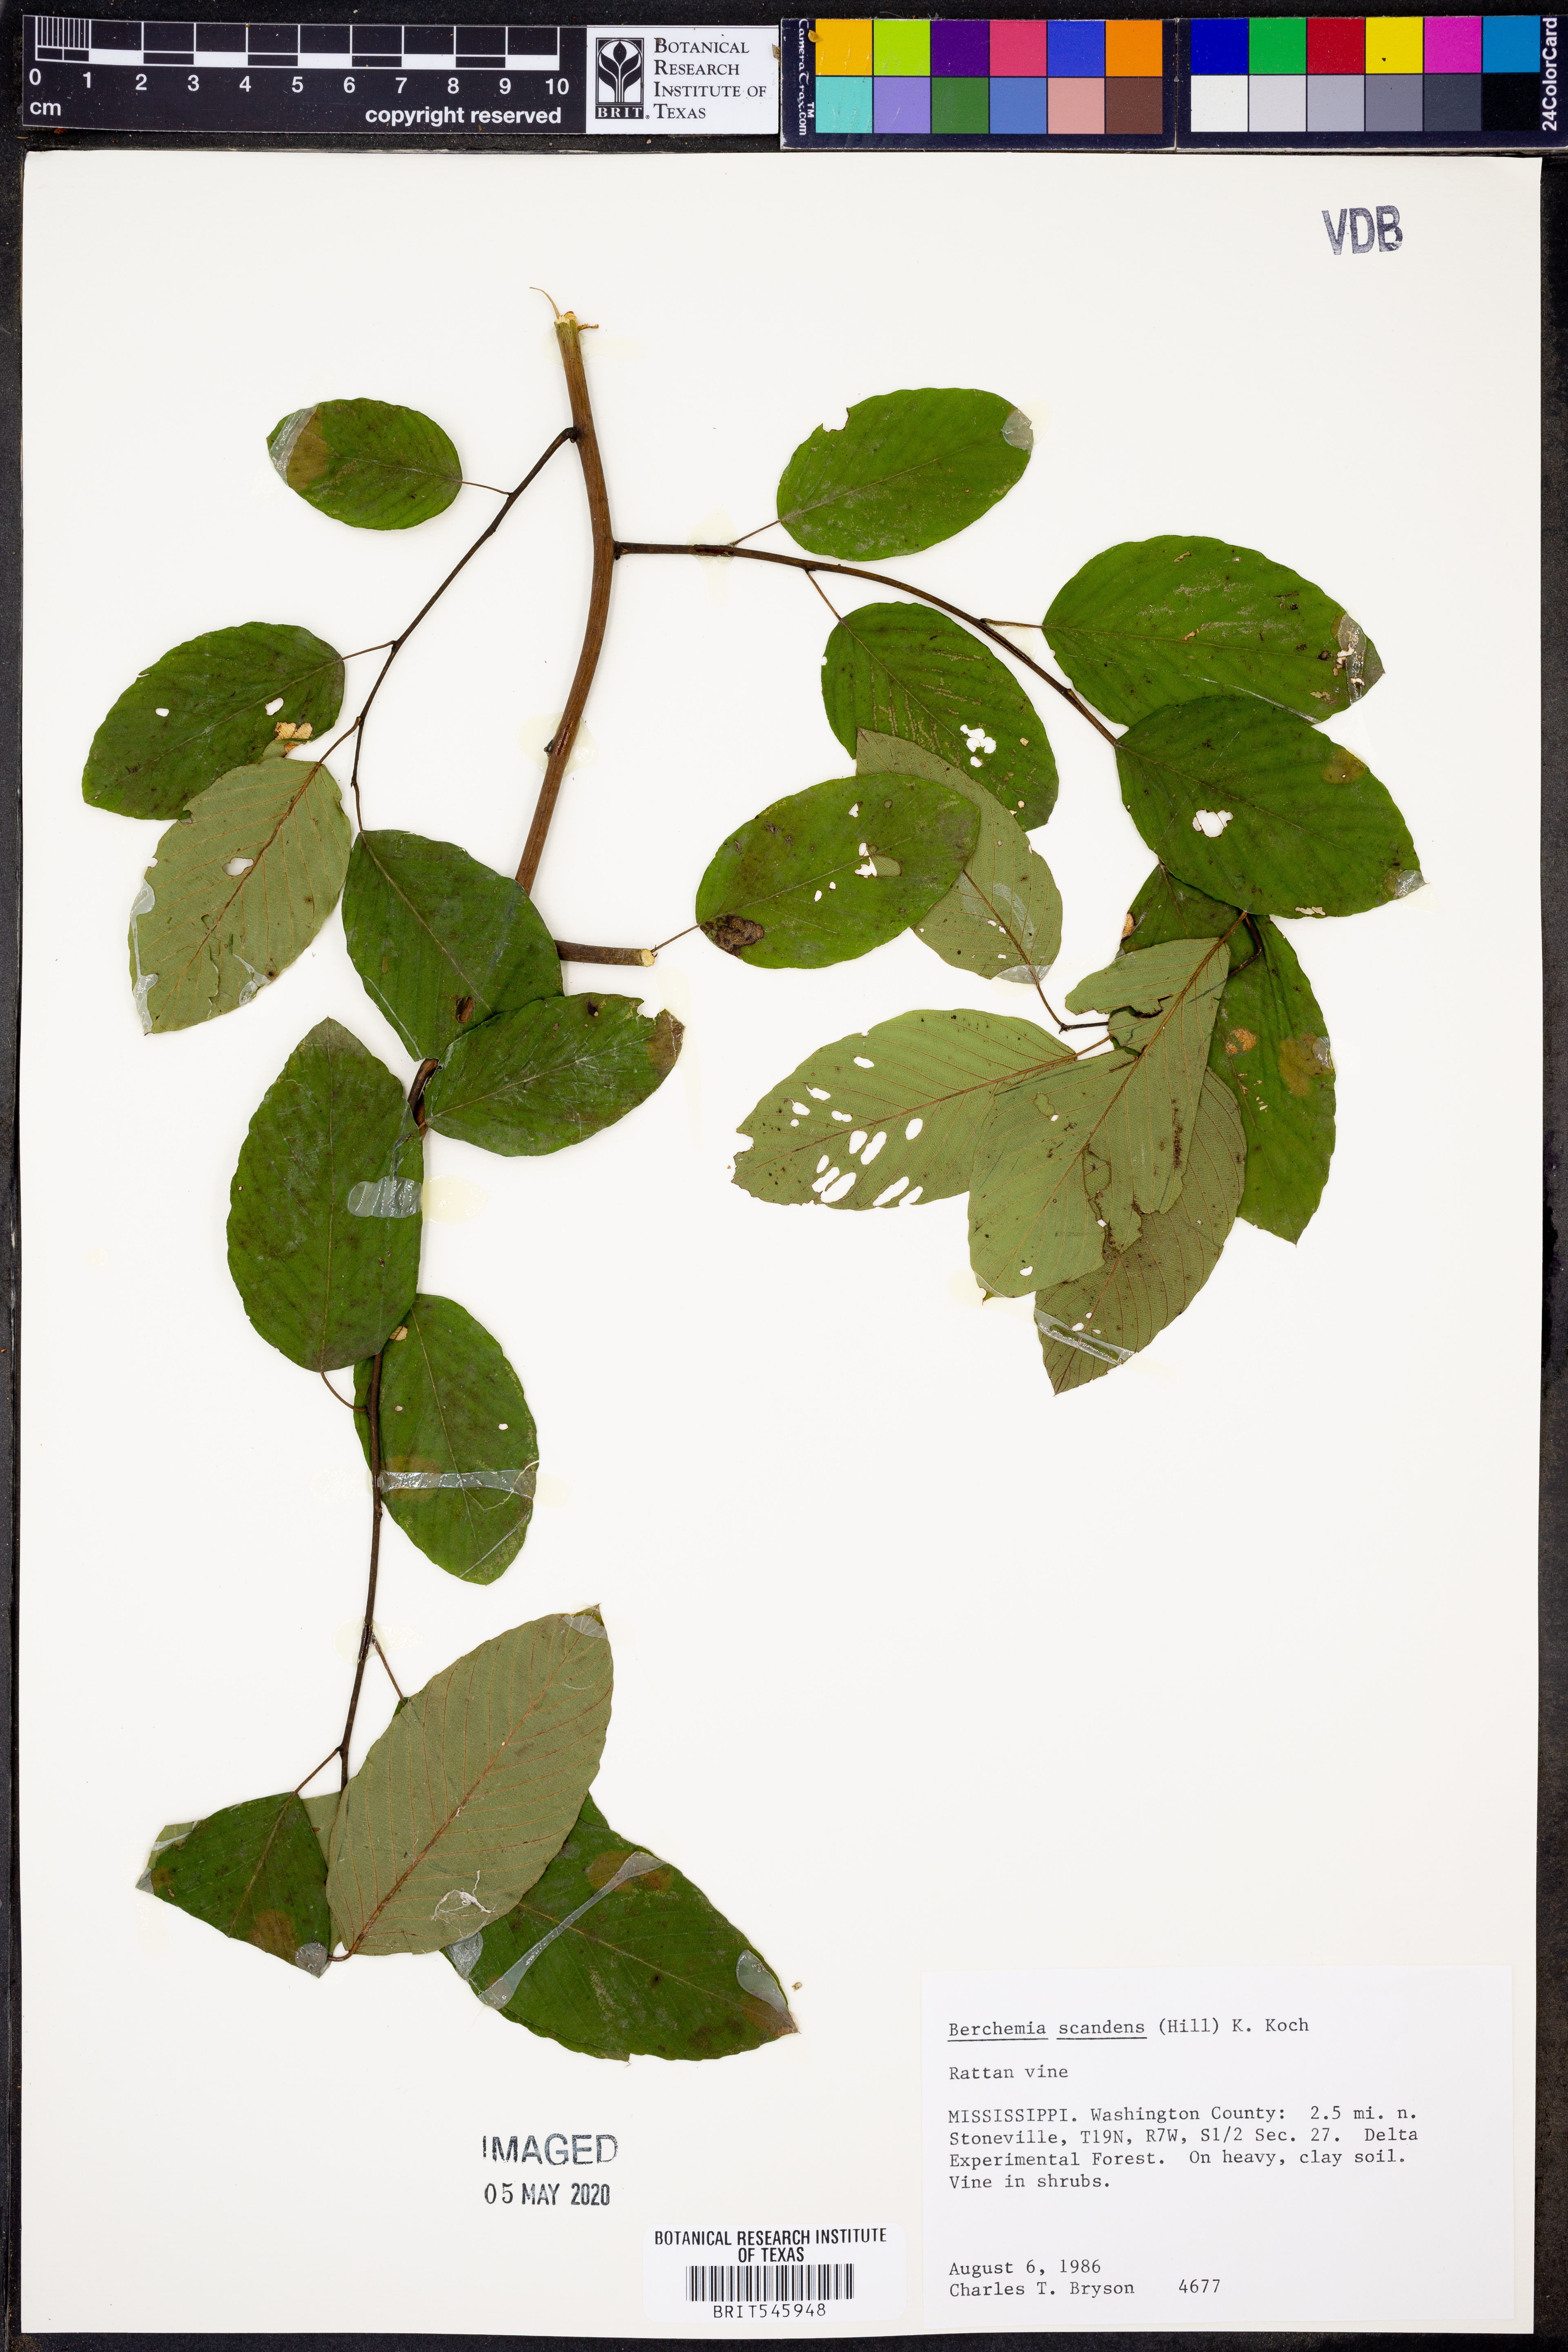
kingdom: Plantae
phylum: Tracheophyta
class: Magnoliopsida
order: Rosales
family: Rhamnaceae
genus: Berchemia
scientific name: Berchemia scandens
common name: Supplejack
